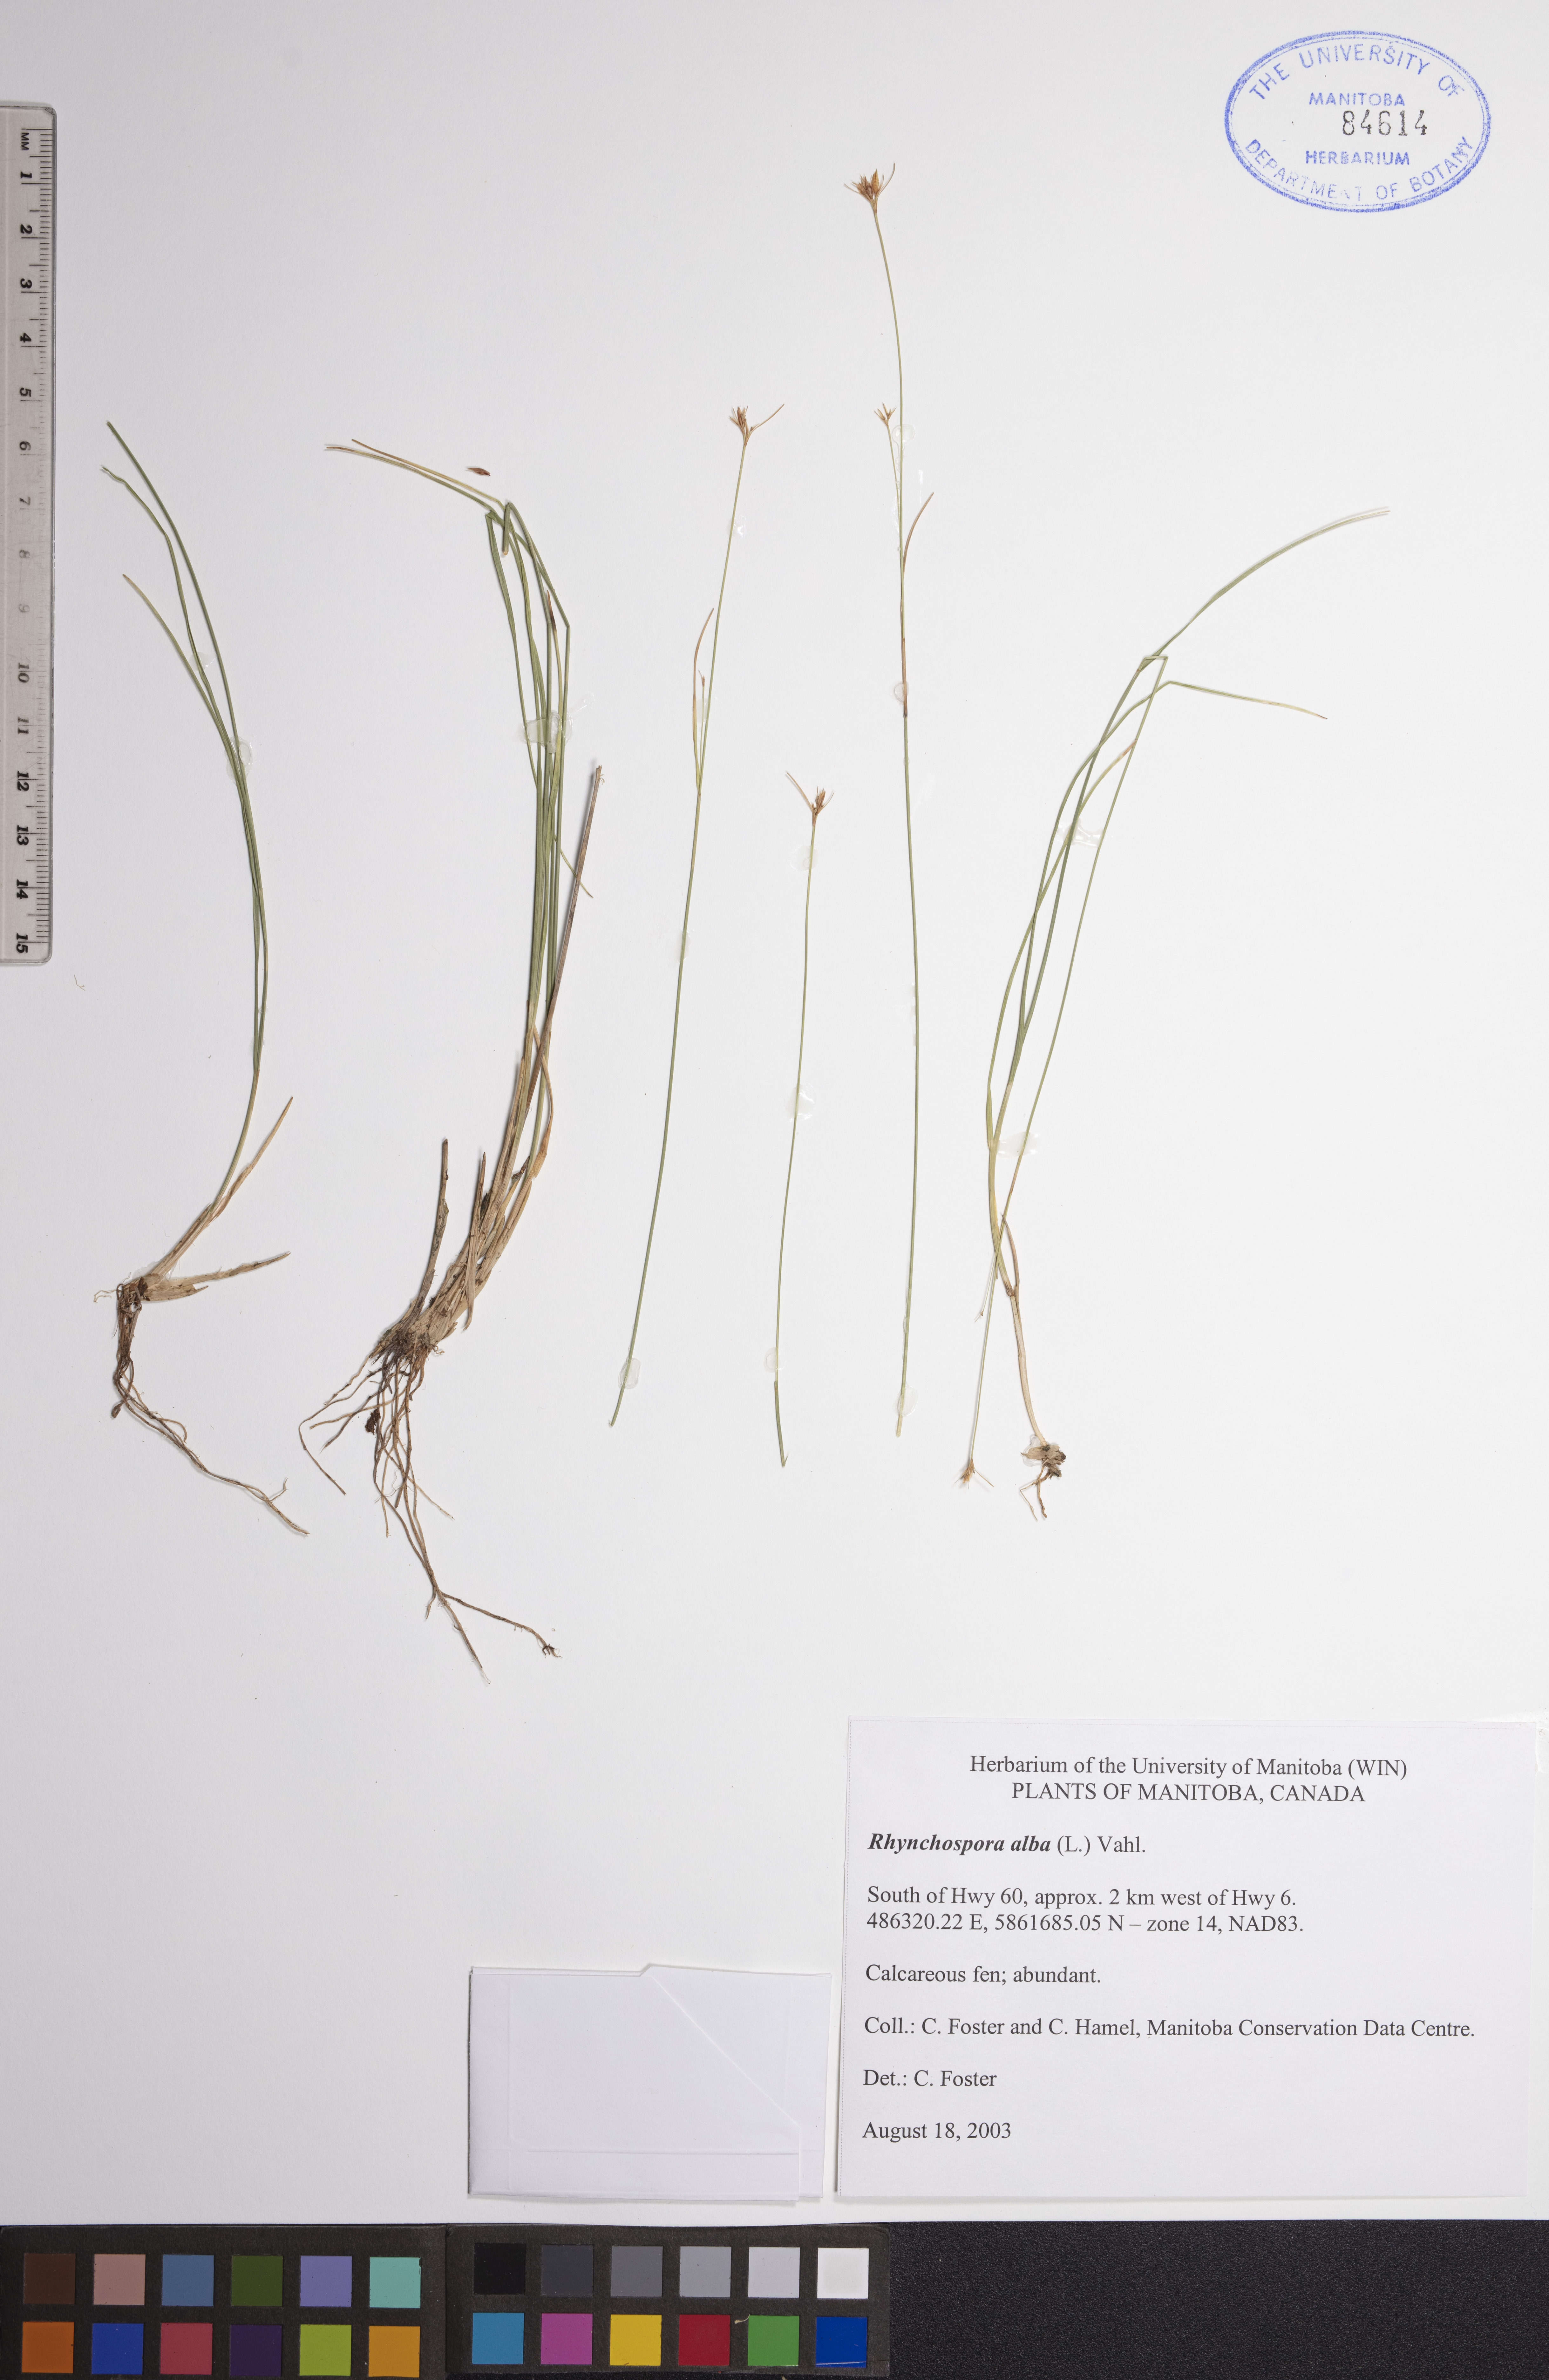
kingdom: Plantae
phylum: Tracheophyta
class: Liliopsida
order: Poales
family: Cyperaceae
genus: Rhynchospora
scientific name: Rhynchospora alba
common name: White beak-sedge
